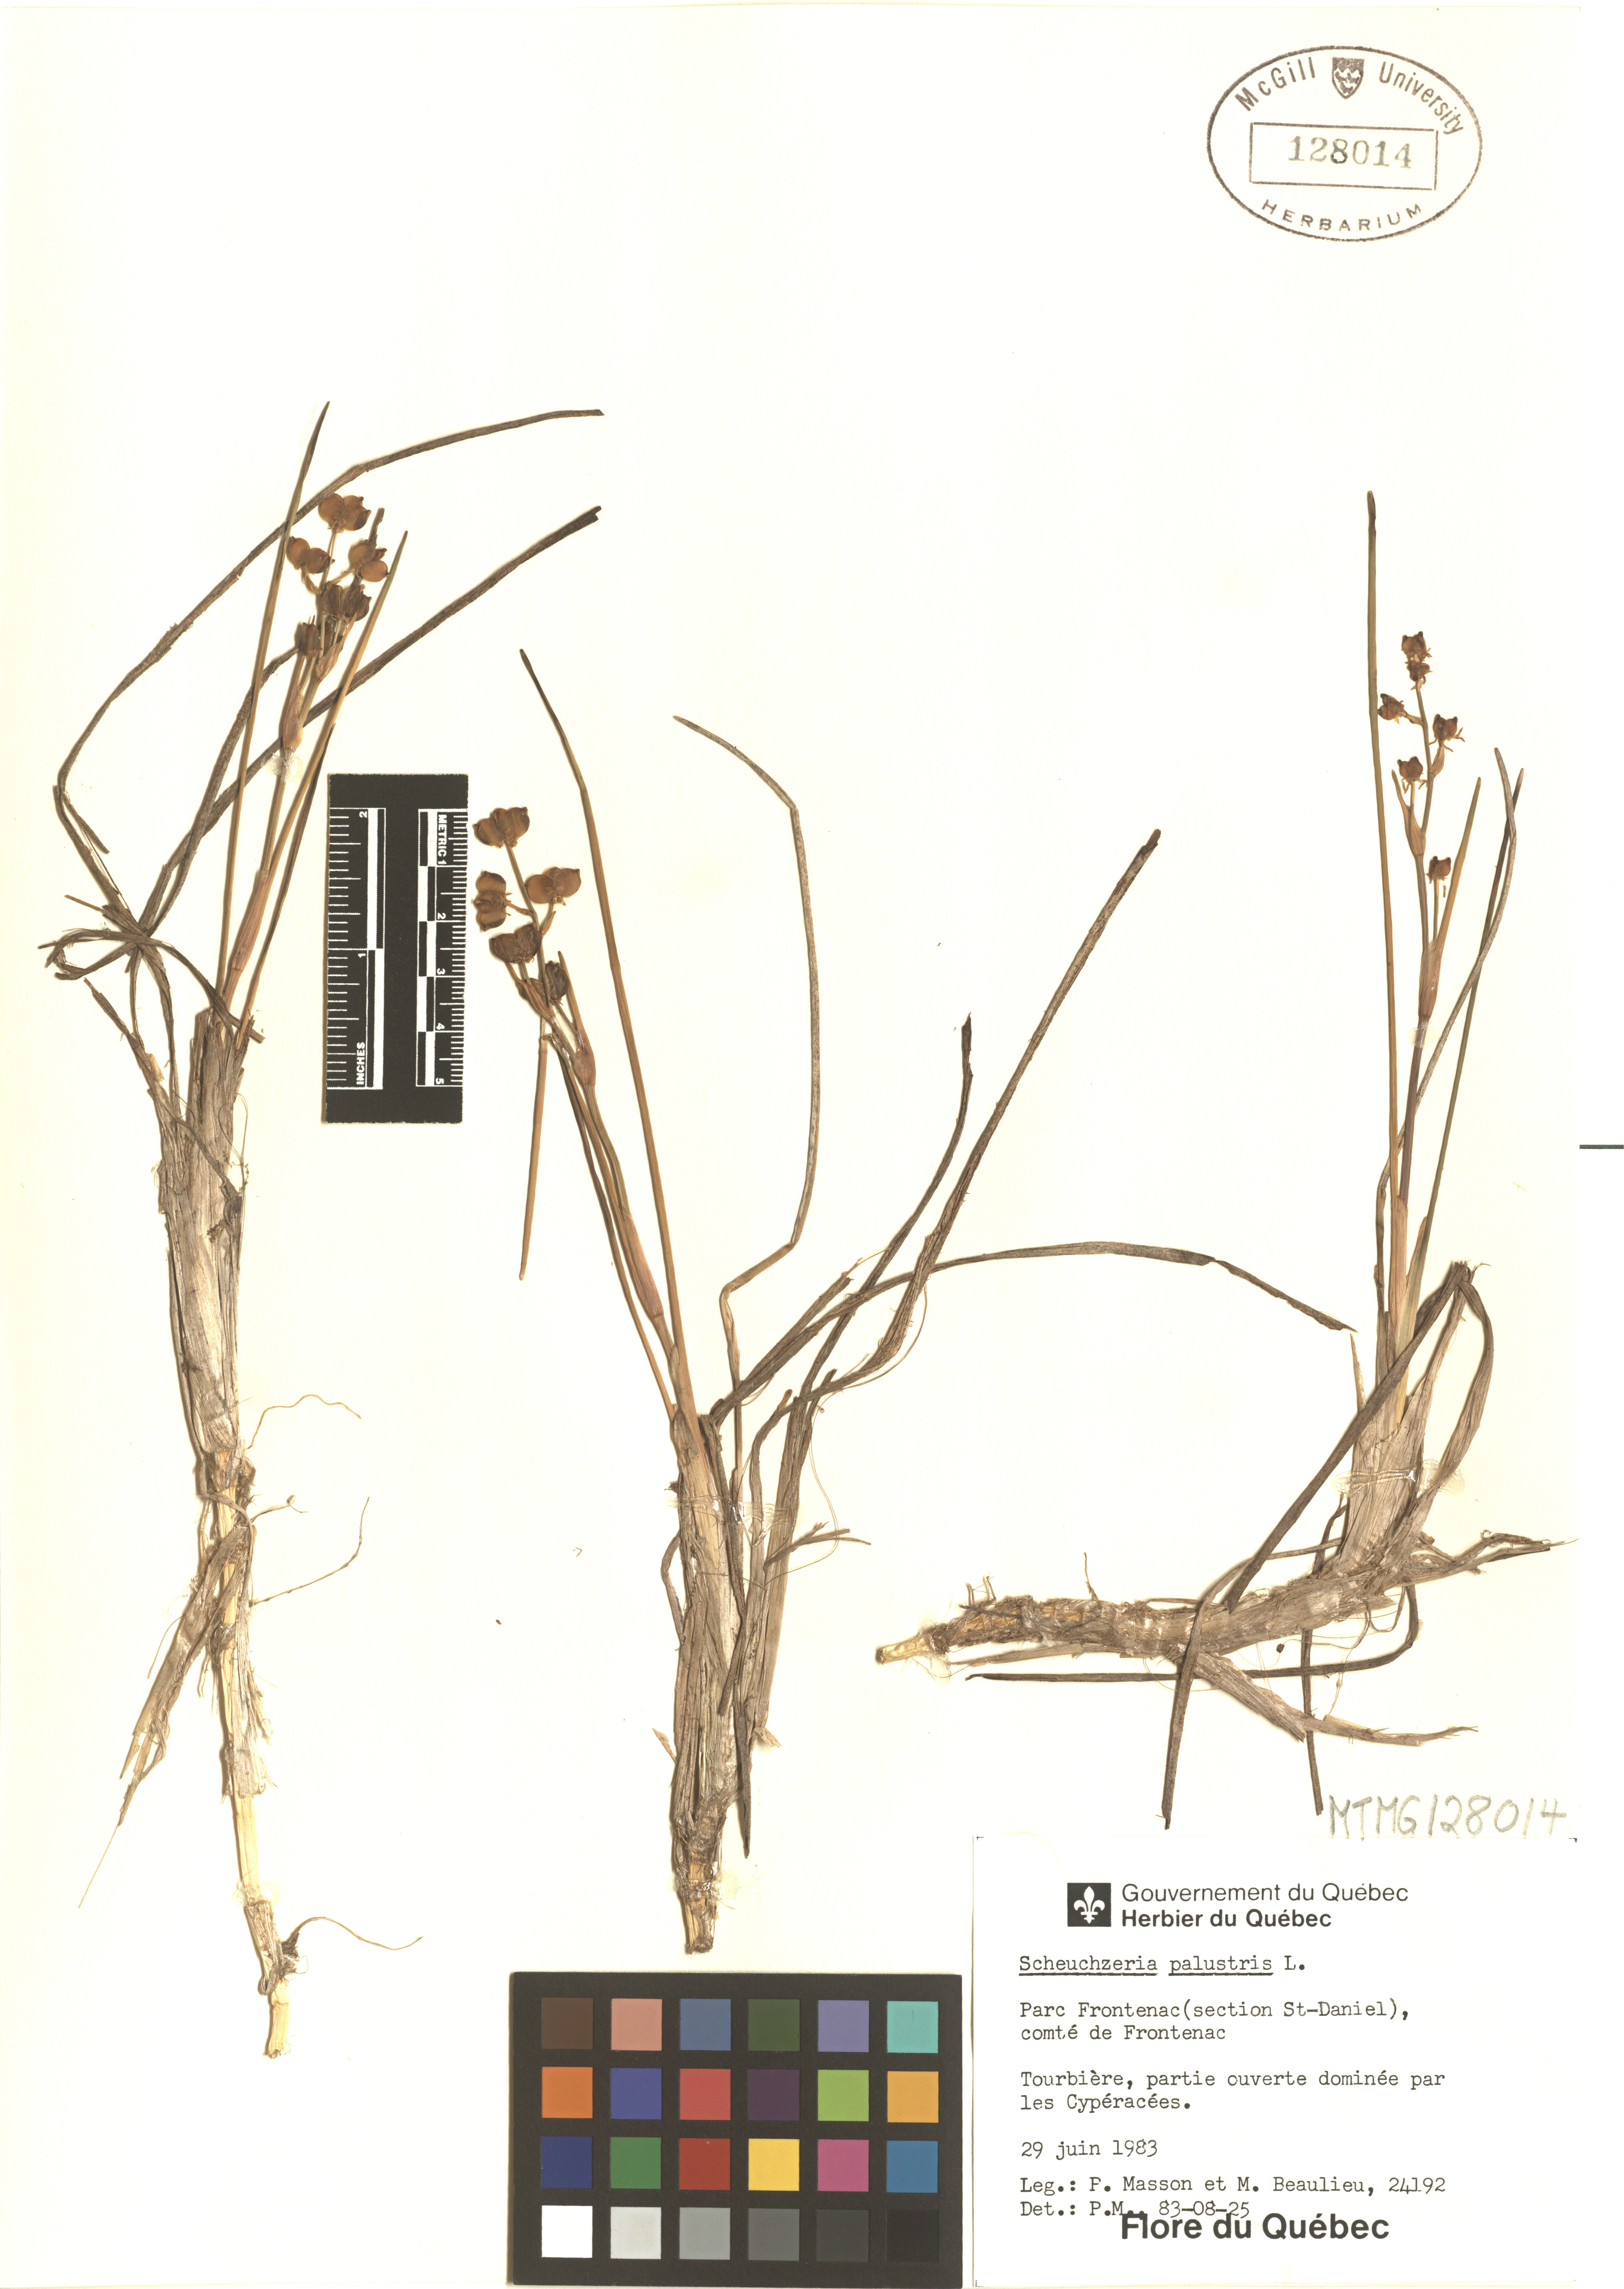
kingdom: Plantae
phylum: Tracheophyta
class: Liliopsida
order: Alismatales
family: Scheuchzeriaceae
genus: Scheuchzeria
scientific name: Scheuchzeria palustris
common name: Rannoch-rush
